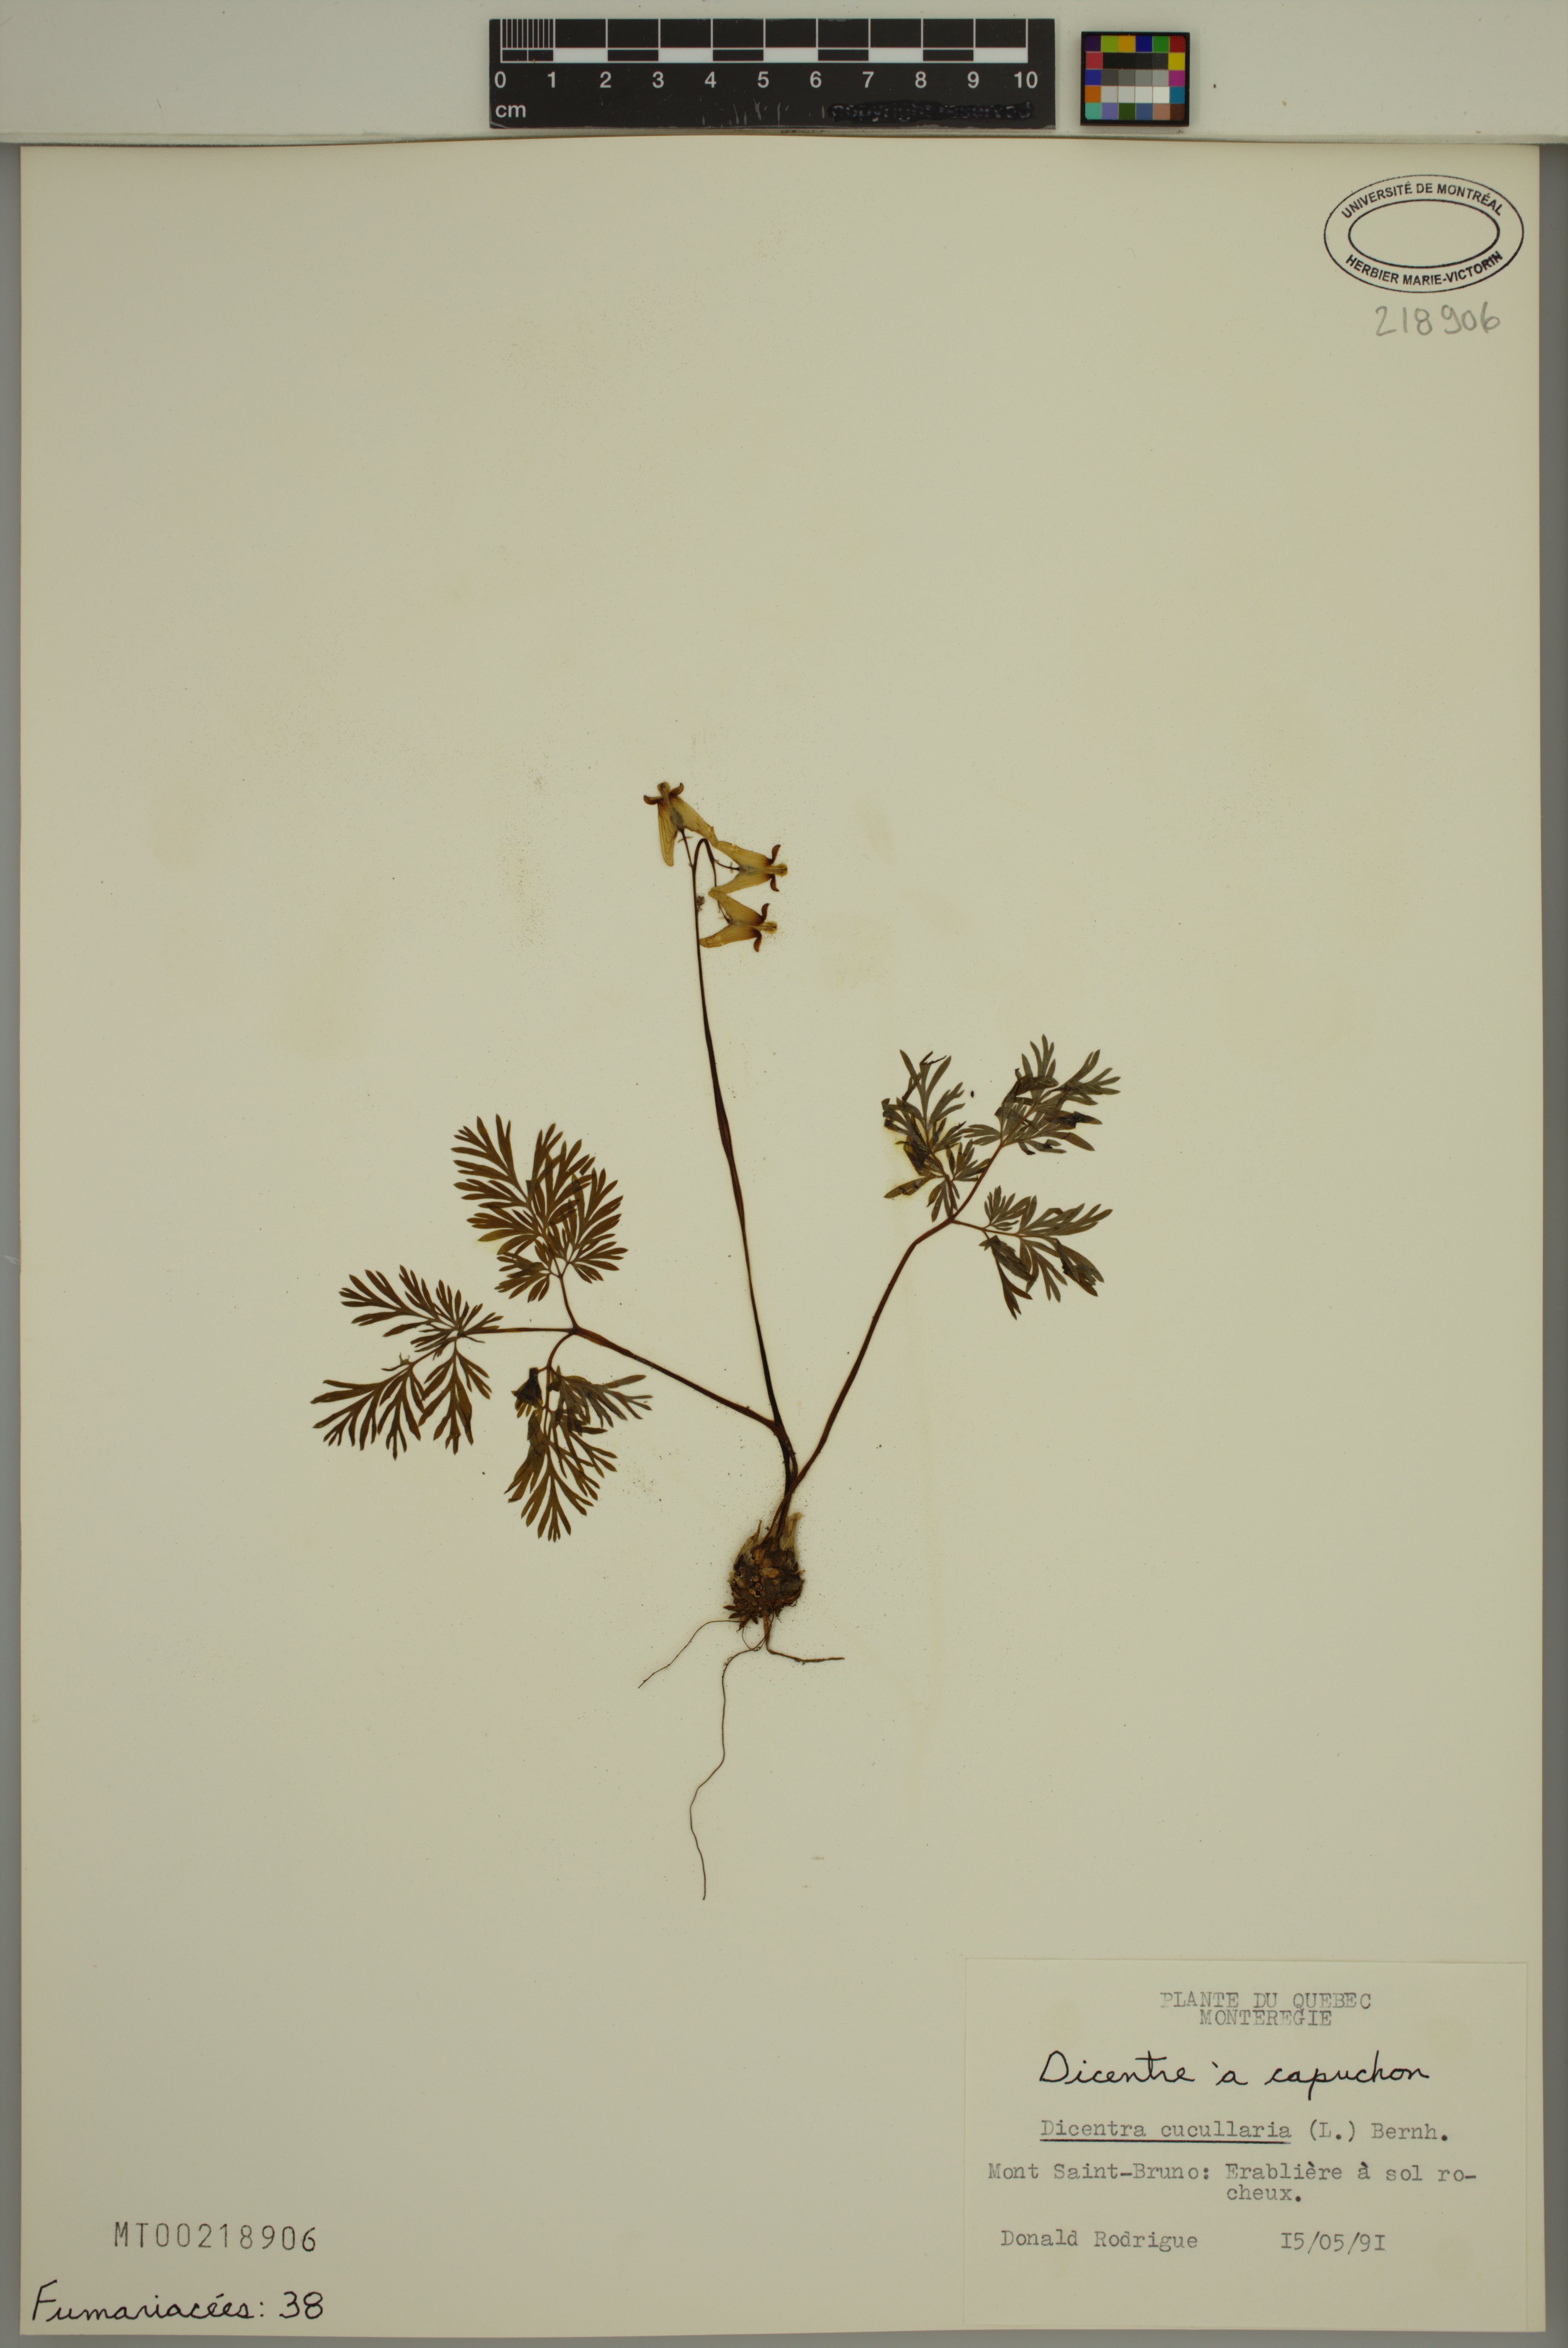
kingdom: Plantae
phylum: Tracheophyta
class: Magnoliopsida
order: Ranunculales
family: Papaveraceae
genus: Dicentra
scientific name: Dicentra cucullaria
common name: Dutchman's breeches
